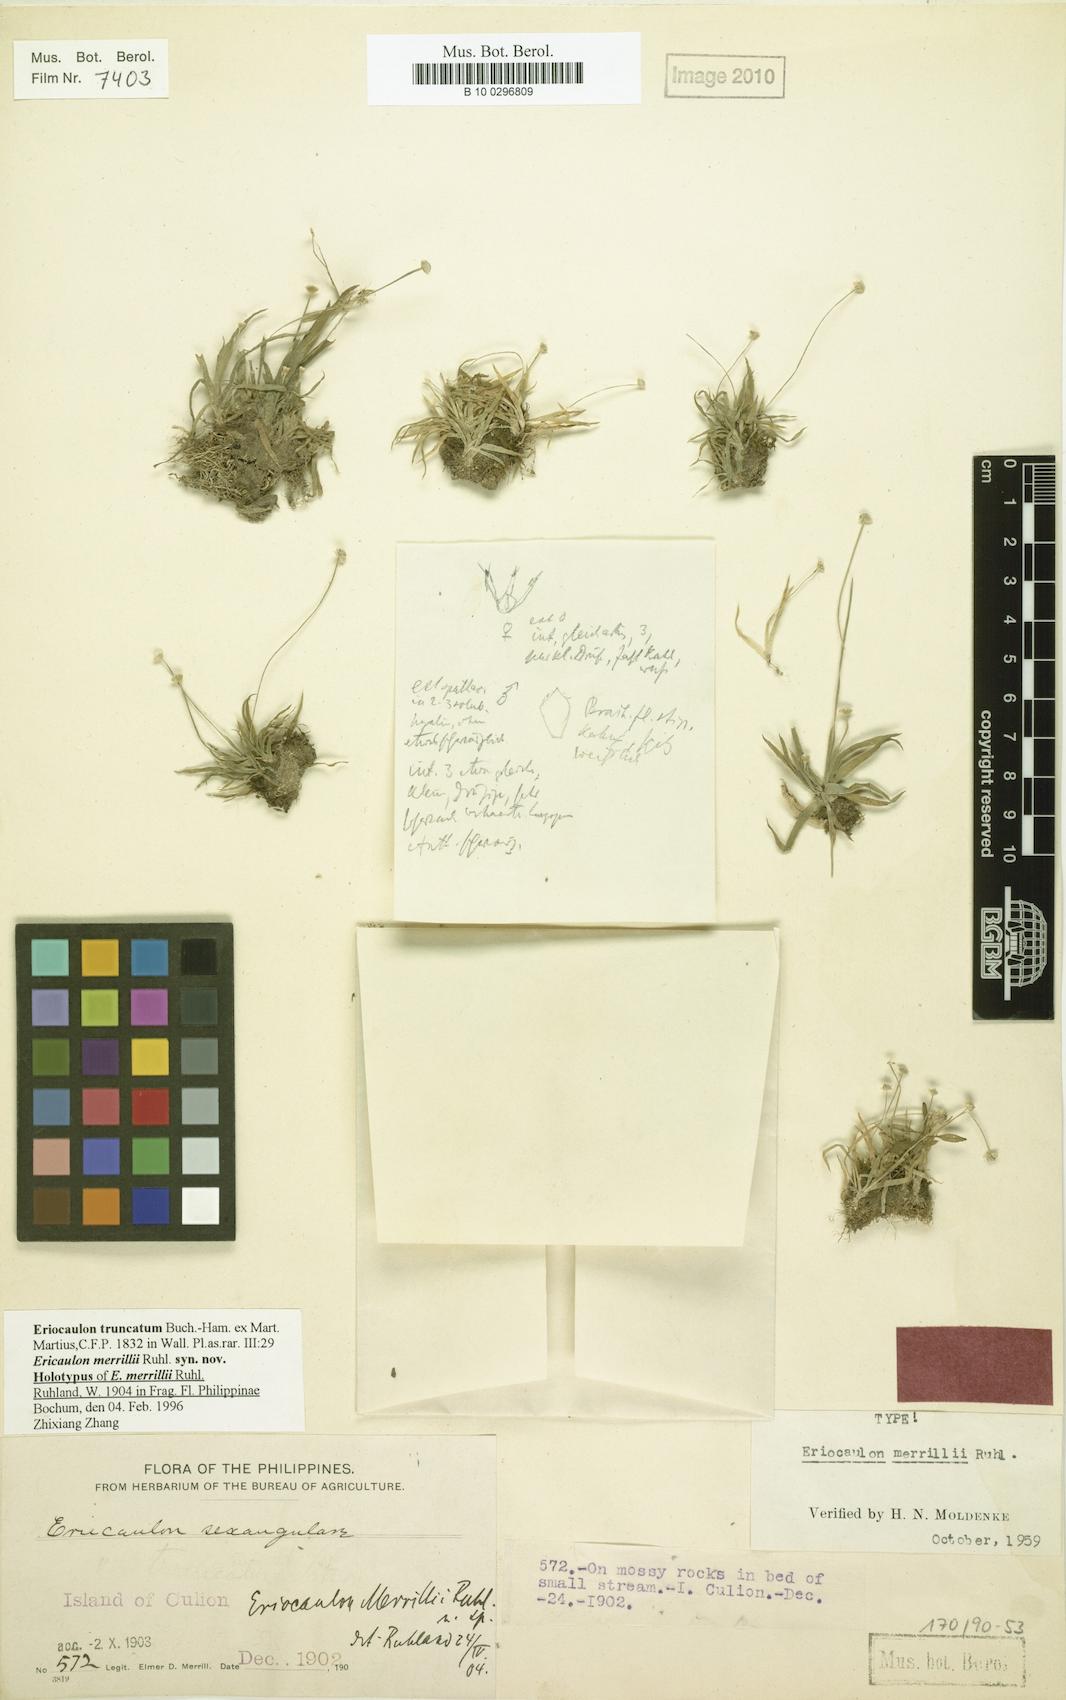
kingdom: Plantae
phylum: Tracheophyta
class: Liliopsida
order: Poales
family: Eriocaulaceae
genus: Eriocaulon
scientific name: Eriocaulon truncatum
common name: Short pipe-wort
